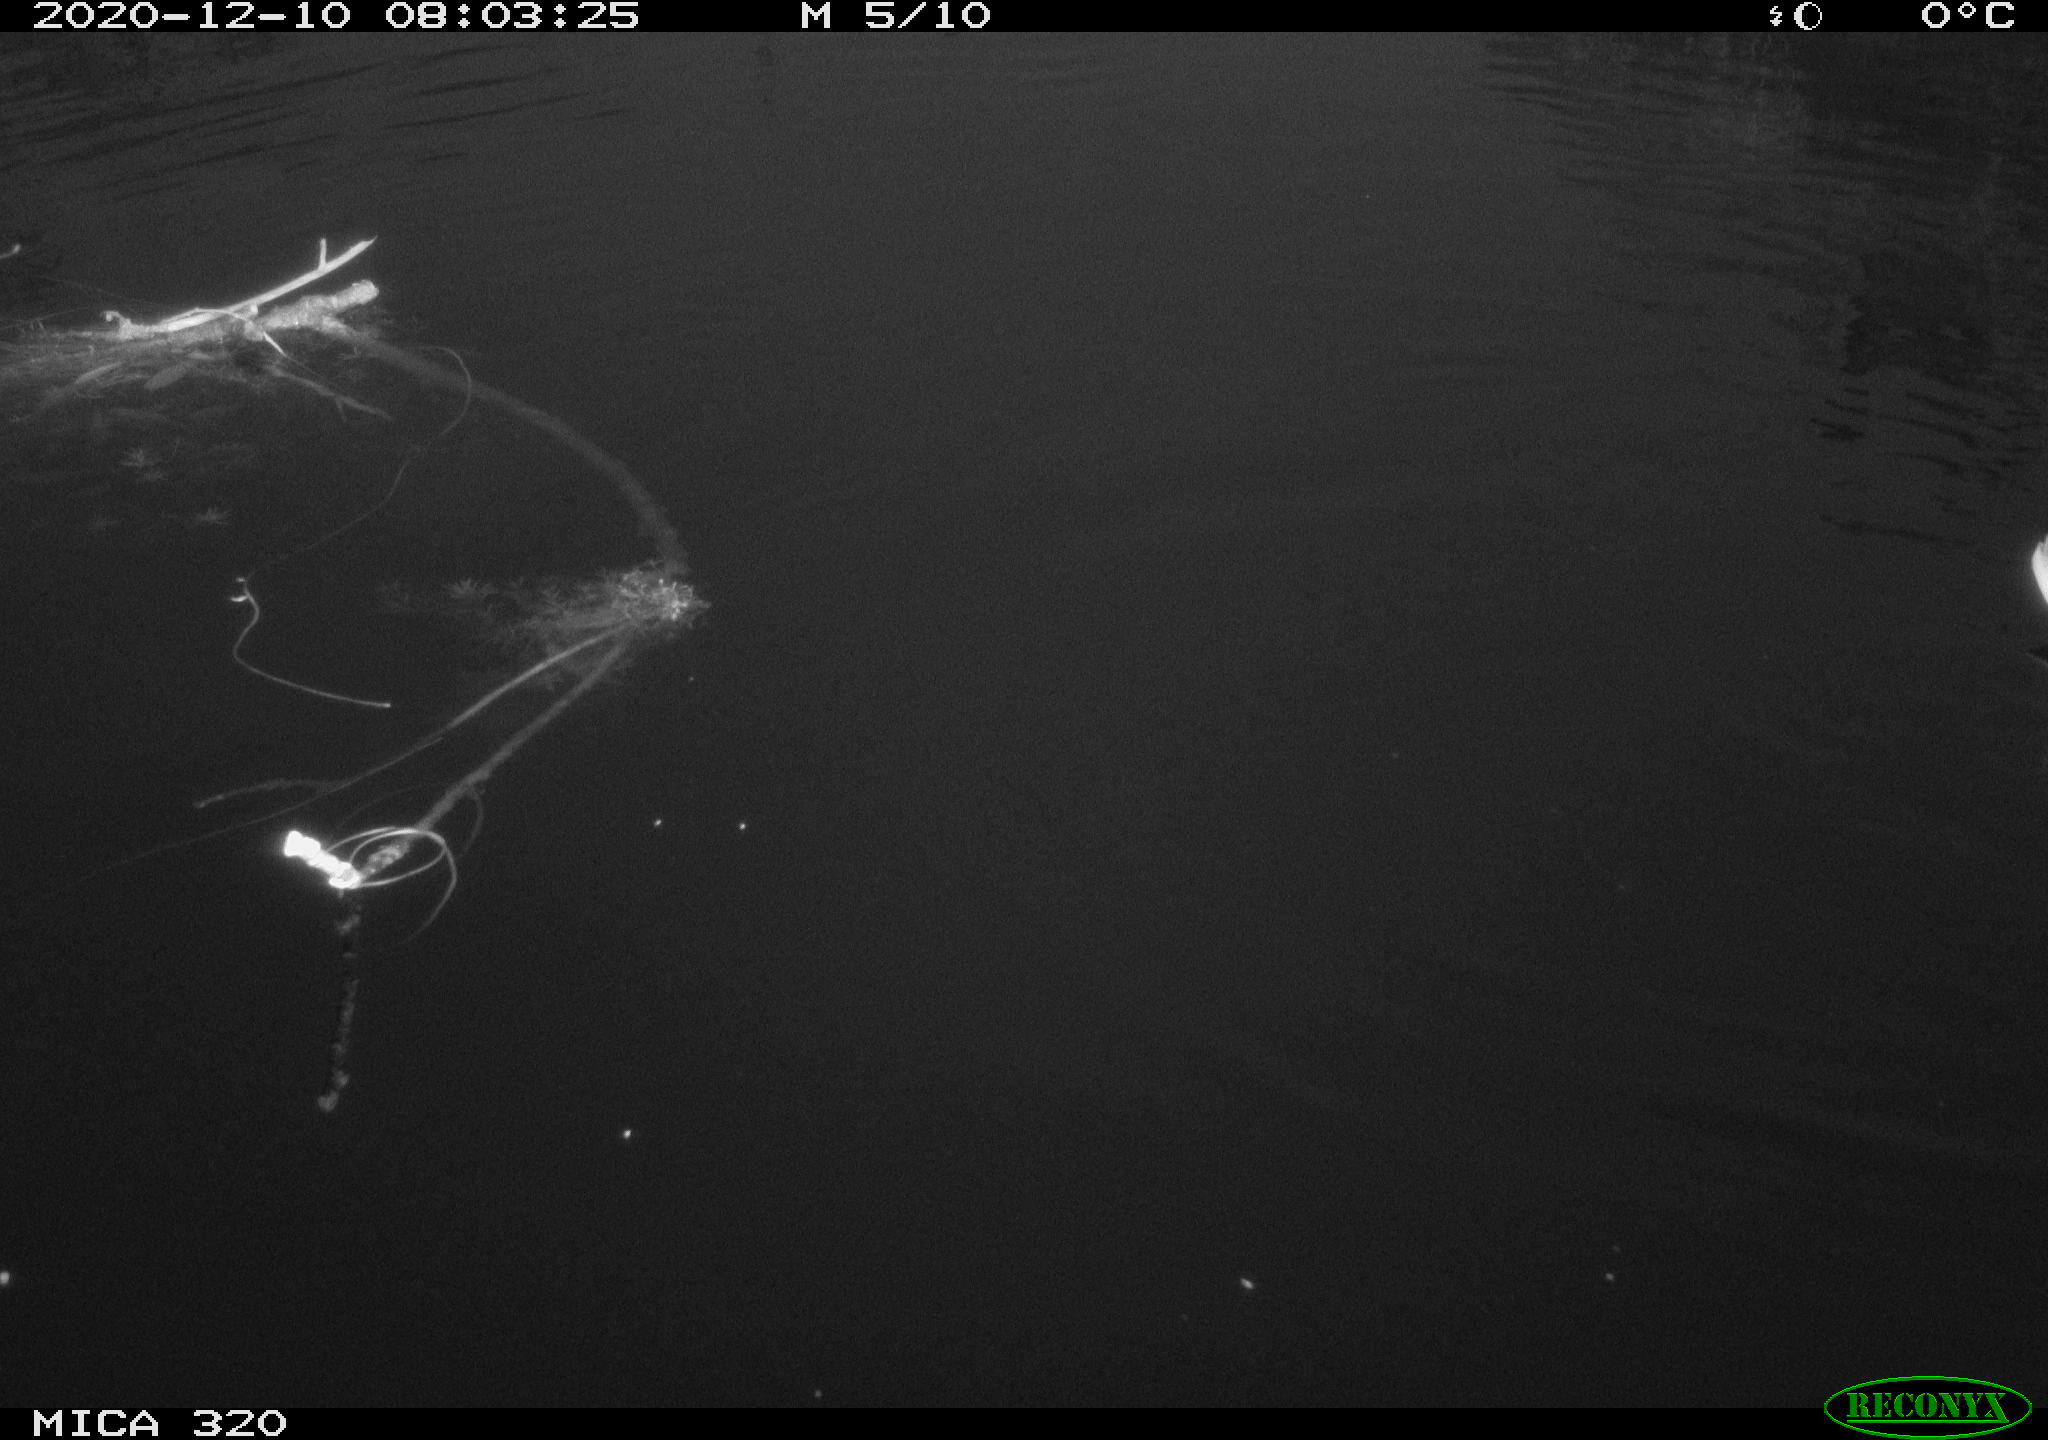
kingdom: Animalia
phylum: Chordata
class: Aves
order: Anseriformes
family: Anatidae
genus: Anas
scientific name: Anas platyrhynchos
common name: Mallard
